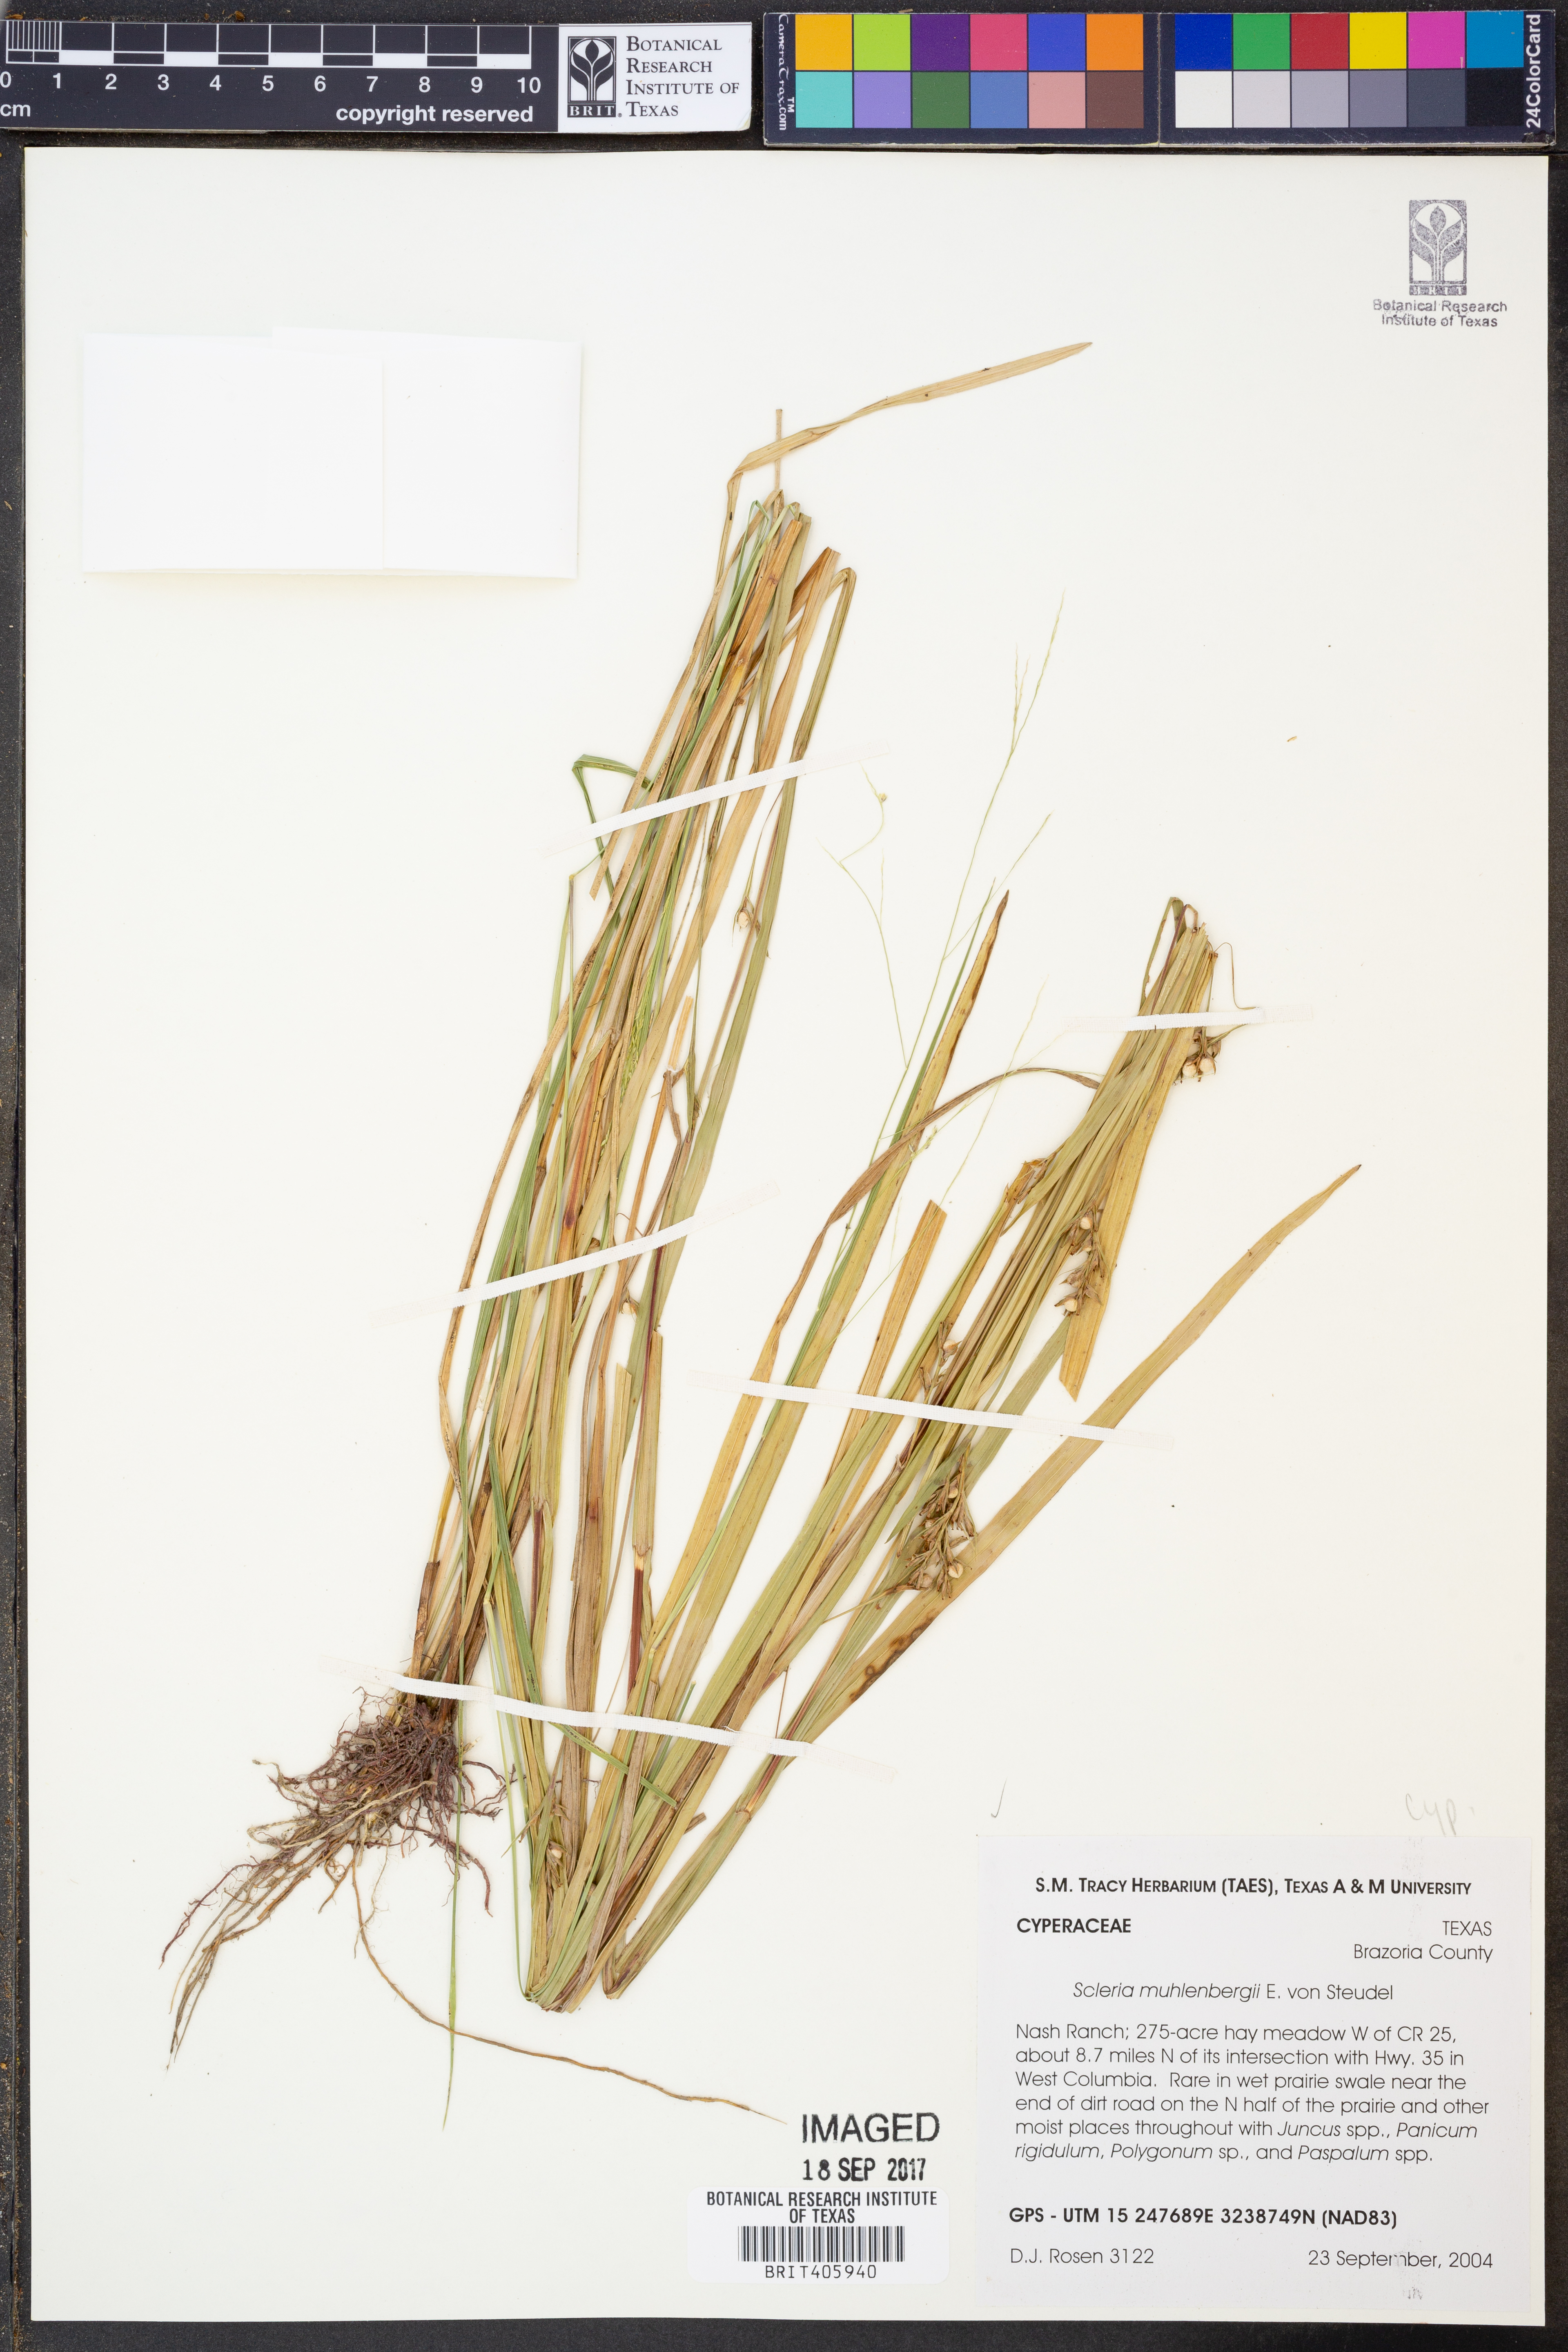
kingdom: Plantae
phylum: Tracheophyta
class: Liliopsida
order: Poales
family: Cyperaceae
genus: Scleria
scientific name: Scleria muehlenbergii
